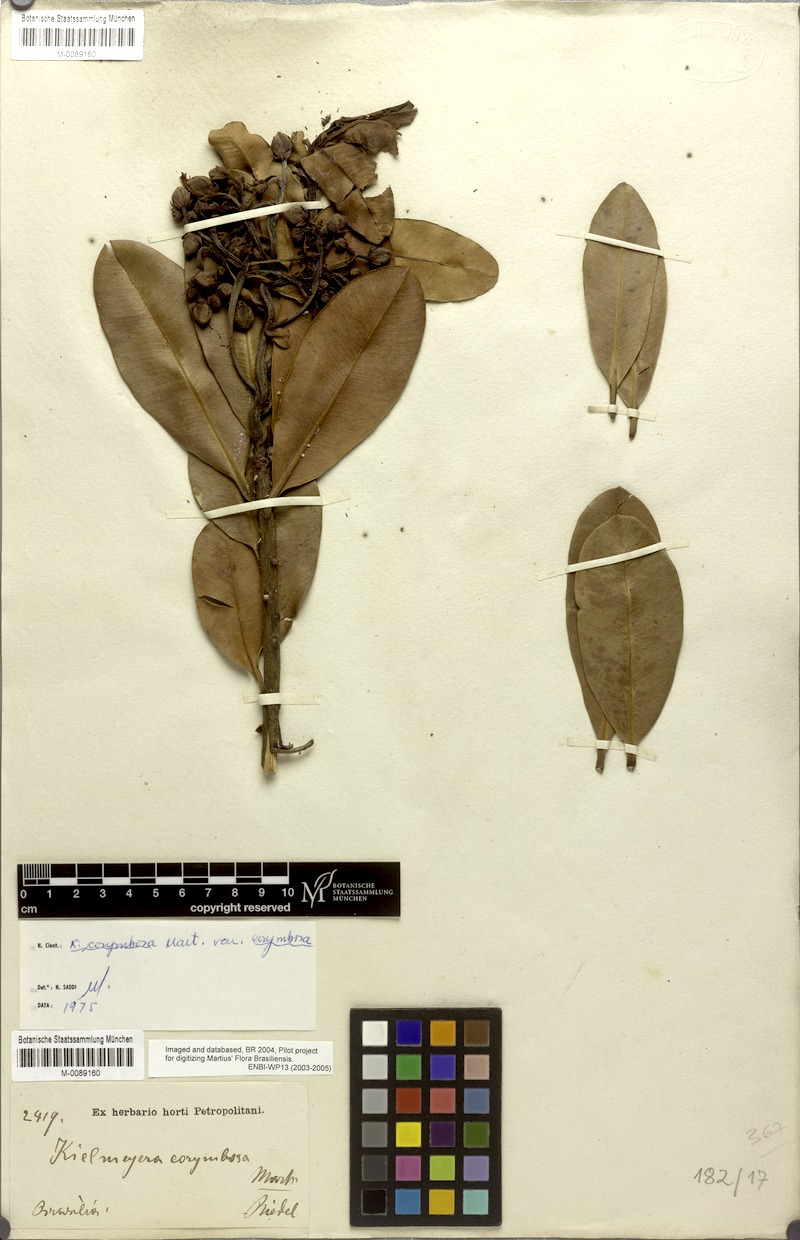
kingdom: Plantae
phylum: Tracheophyta
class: Magnoliopsida
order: Malpighiales
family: Calophyllaceae
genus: Kielmeyera
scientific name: Kielmeyera corymbosa
